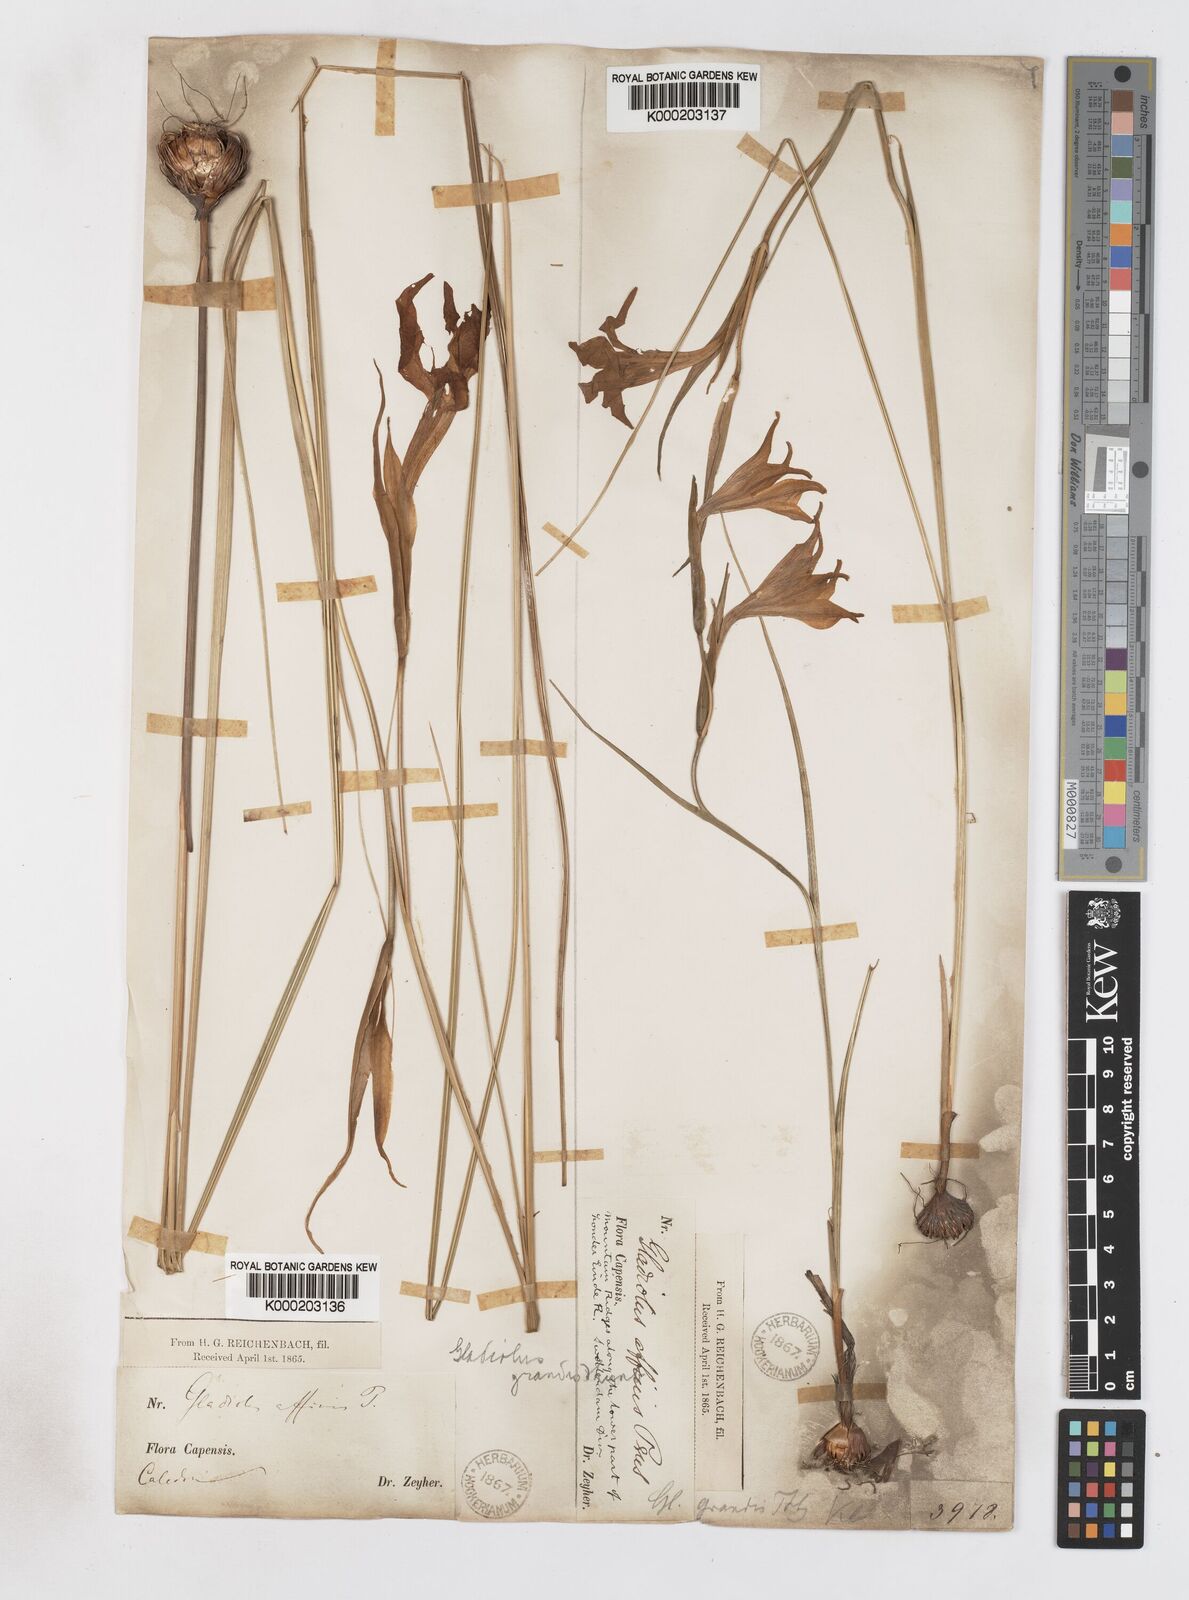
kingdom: Plantae
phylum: Tracheophyta
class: Liliopsida
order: Asparagales
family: Iridaceae
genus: Gladiolus
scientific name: Gladiolus liliaceus
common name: Large brown afrikaner
